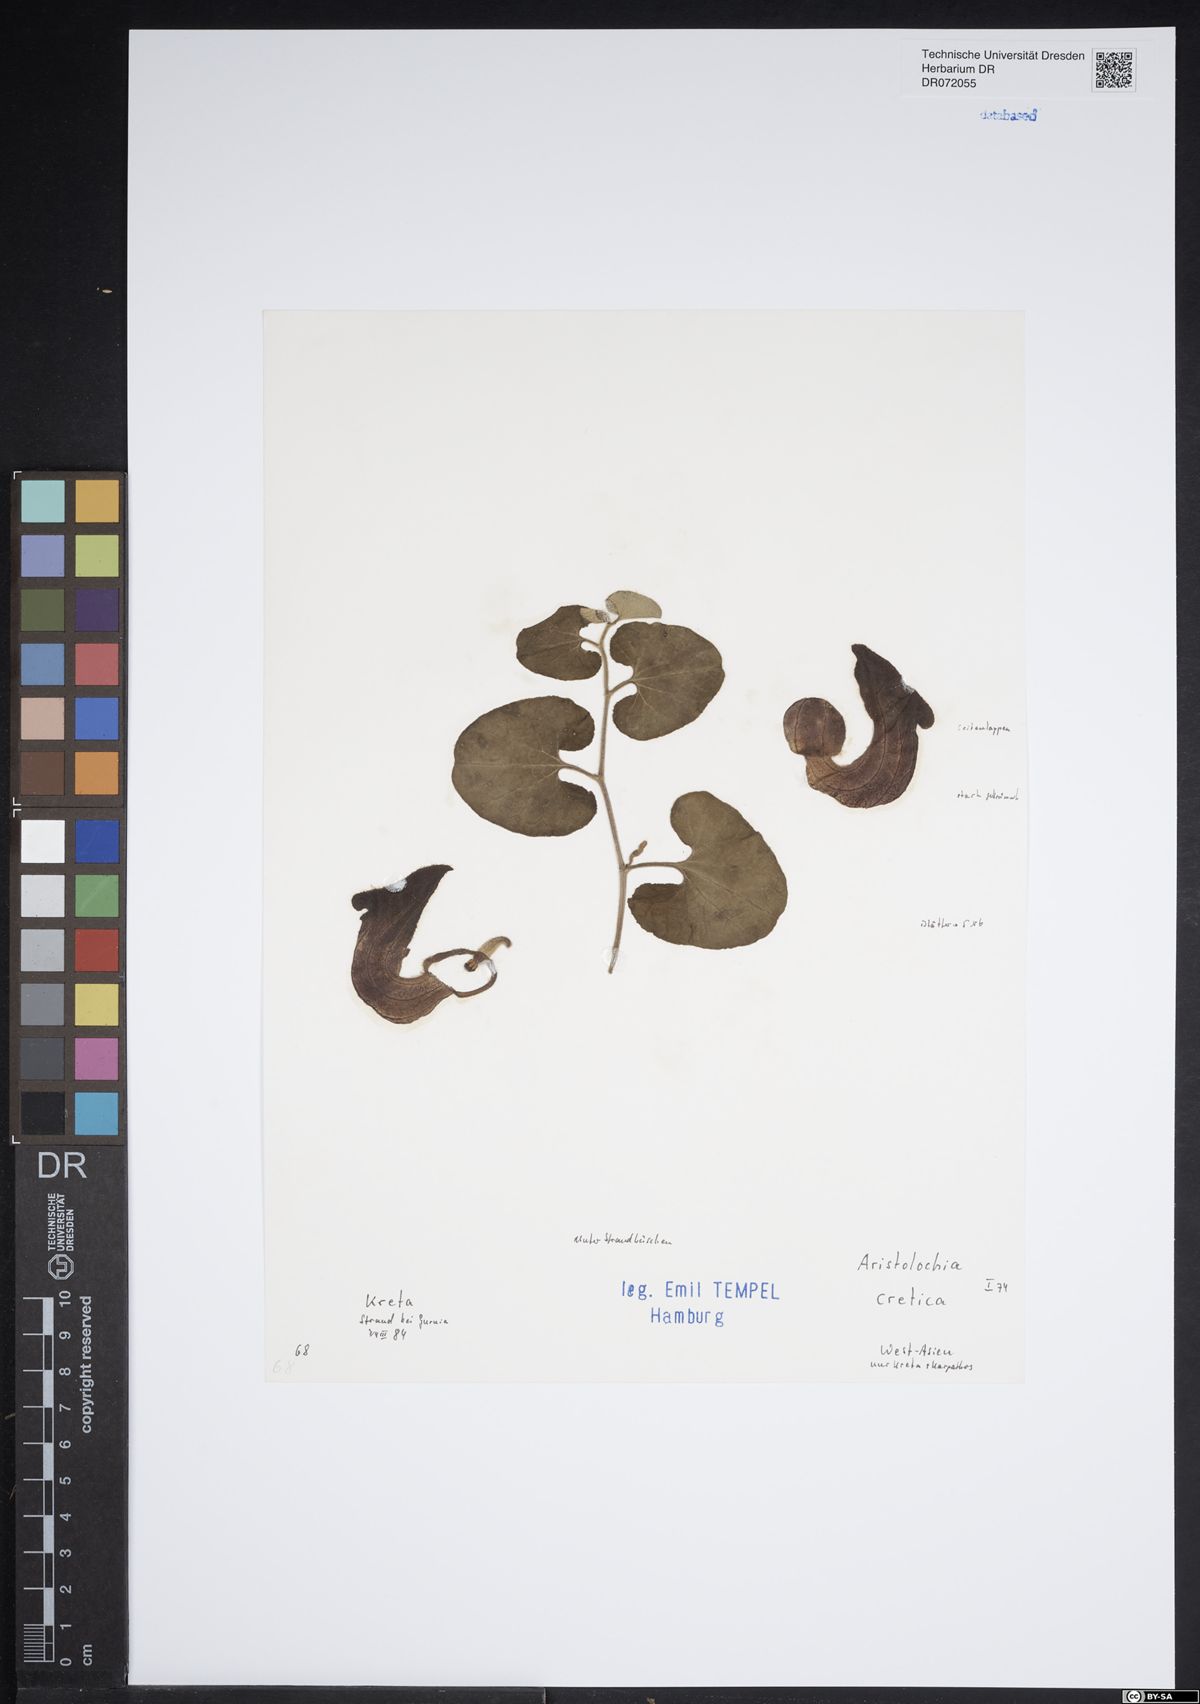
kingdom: Plantae
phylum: Tracheophyta
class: Magnoliopsida
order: Piperales
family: Aristolochiaceae
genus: Aristolochia
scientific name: Aristolochia cretica
